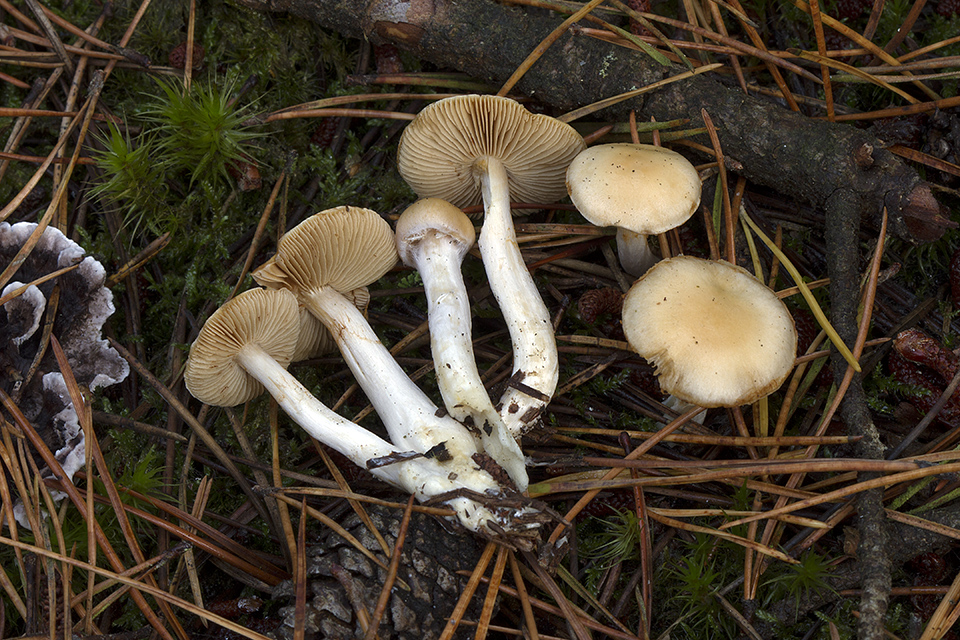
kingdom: Fungi
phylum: Basidiomycota
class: Agaricomycetes
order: Agaricales
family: Cortinariaceae
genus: Thaxterogaster
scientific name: Thaxterogaster azureomarginatus
